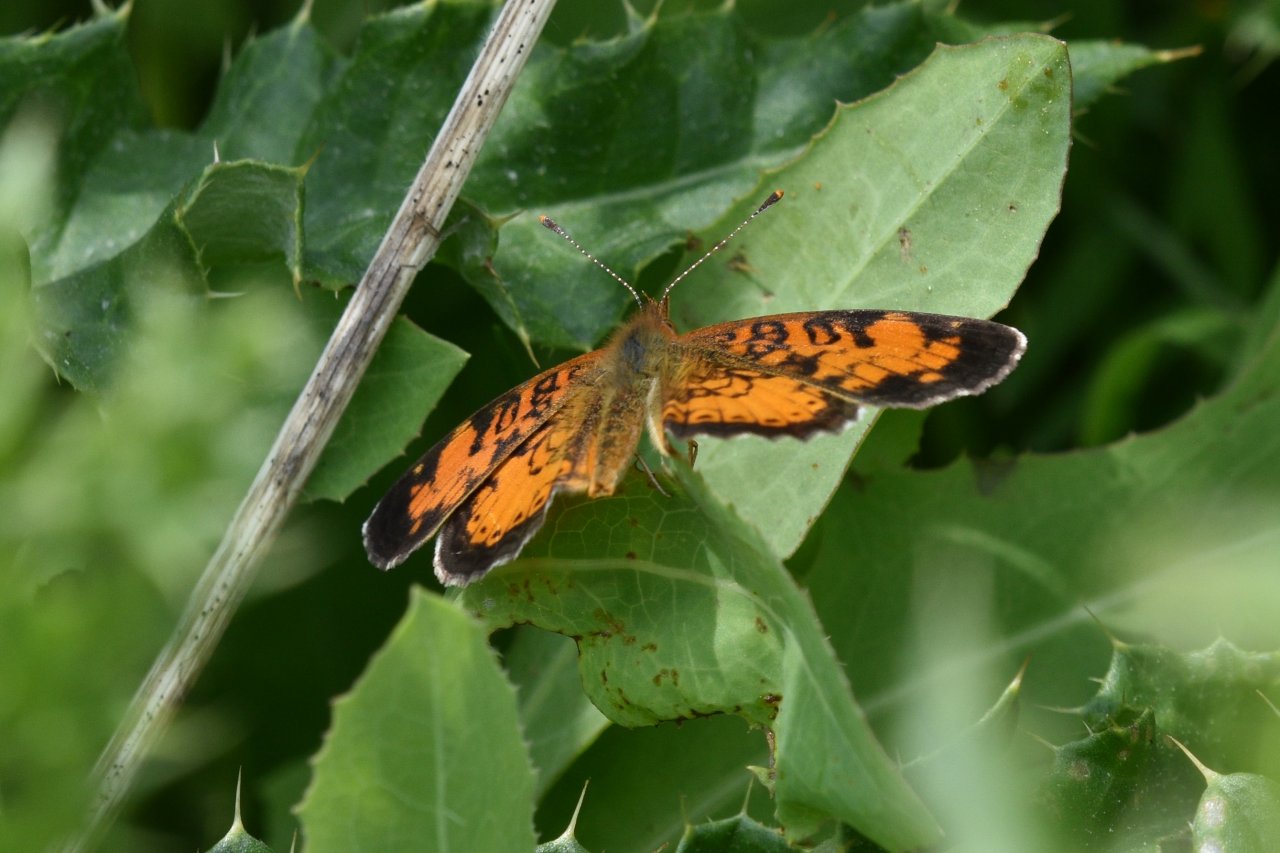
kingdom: Animalia
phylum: Arthropoda
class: Insecta
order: Lepidoptera
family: Nymphalidae
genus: Phyciodes
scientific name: Phyciodes tharos
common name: Northern Crescent
